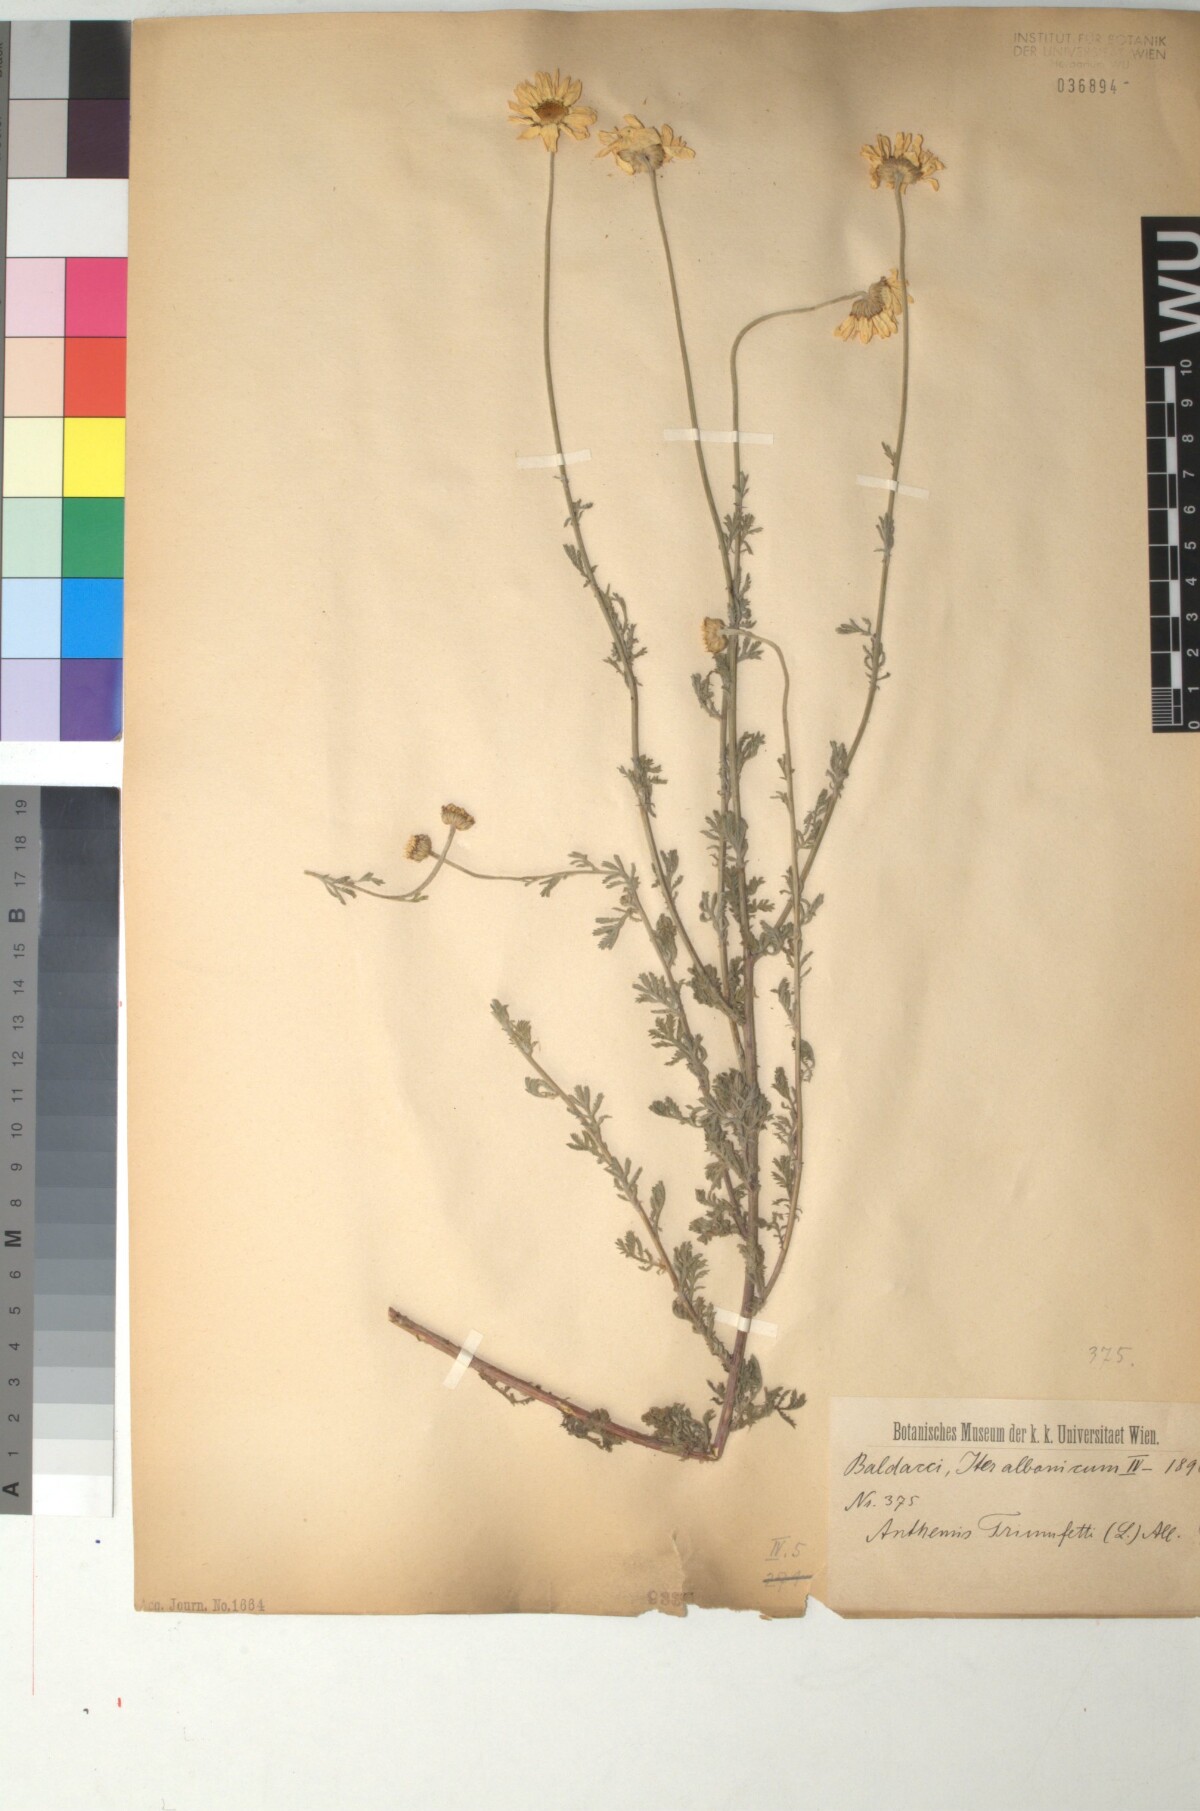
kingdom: Plantae
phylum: Tracheophyta
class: Magnoliopsida
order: Asterales
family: Asteraceae
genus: Cota
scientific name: Cota triumfetti
